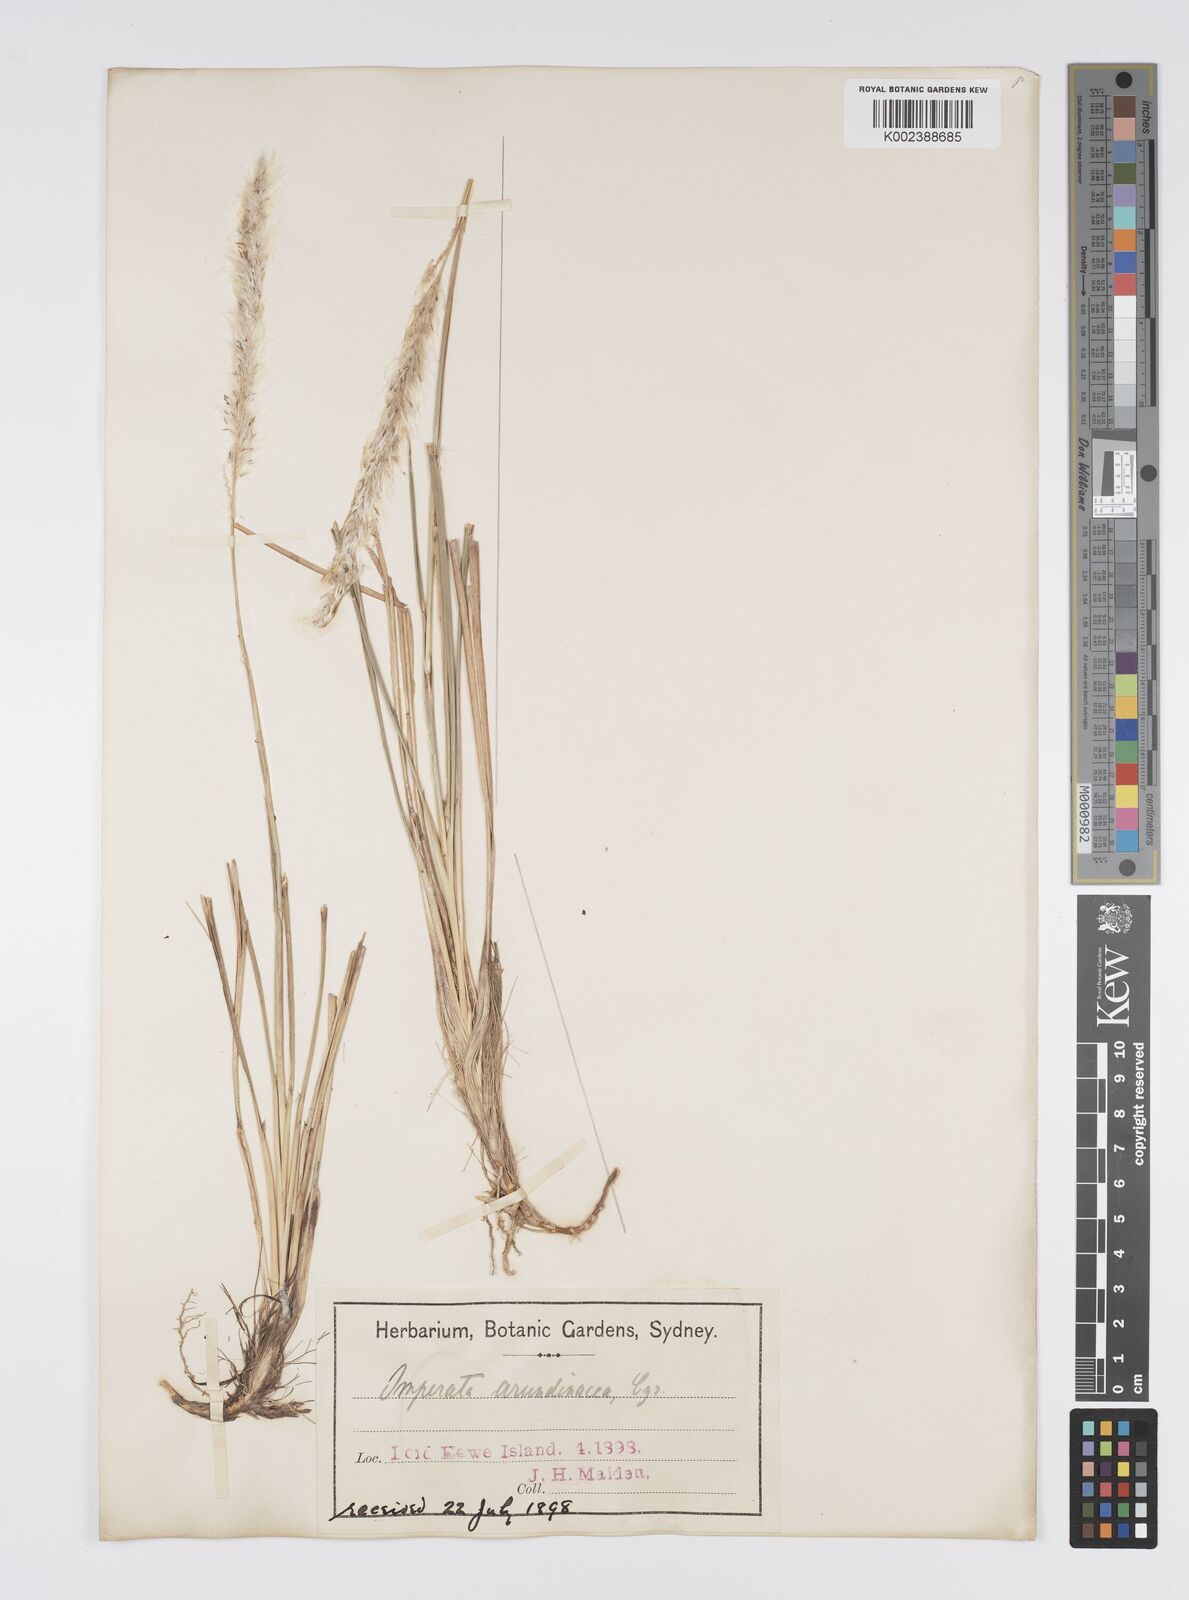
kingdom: Plantae
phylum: Tracheophyta
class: Liliopsida
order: Poales
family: Poaceae
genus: Imperata
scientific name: Imperata cylindrica
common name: Cogongrass
